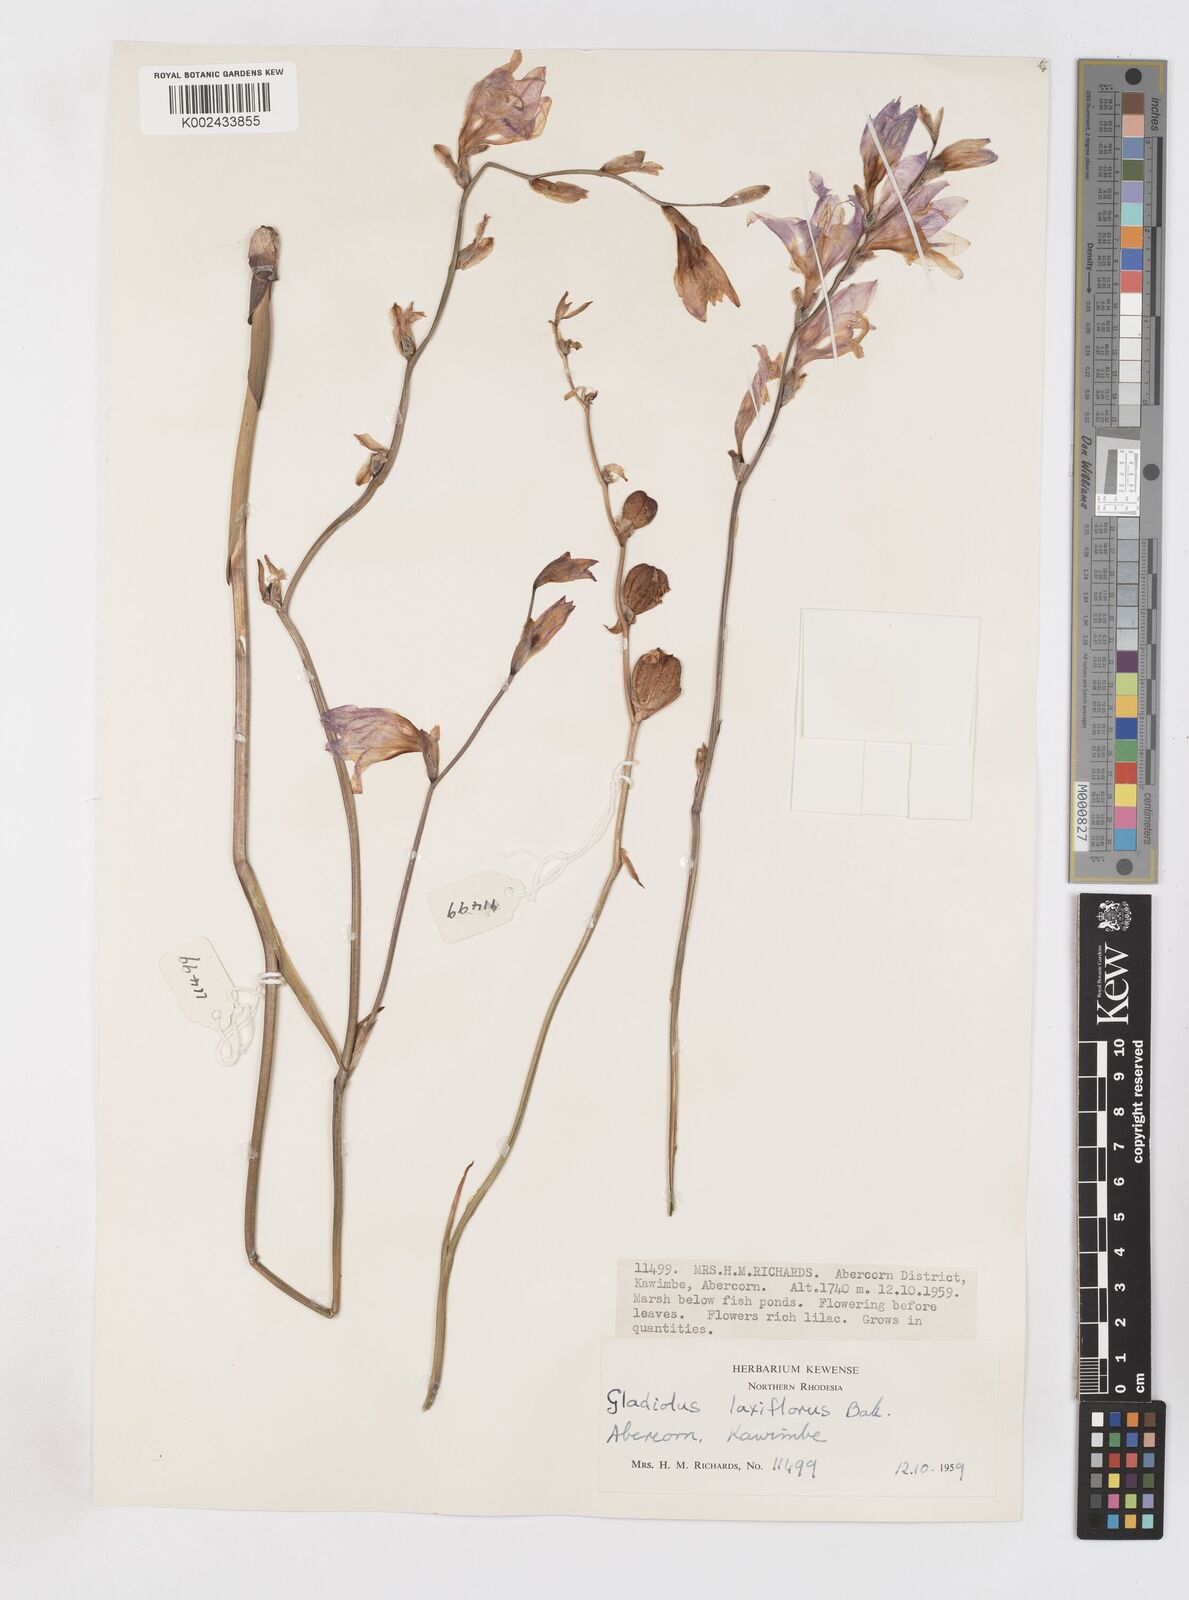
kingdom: Plantae
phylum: Tracheophyta
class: Liliopsida
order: Asparagales
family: Iridaceae
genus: Gladiolus
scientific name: Gladiolus laxiflorus
